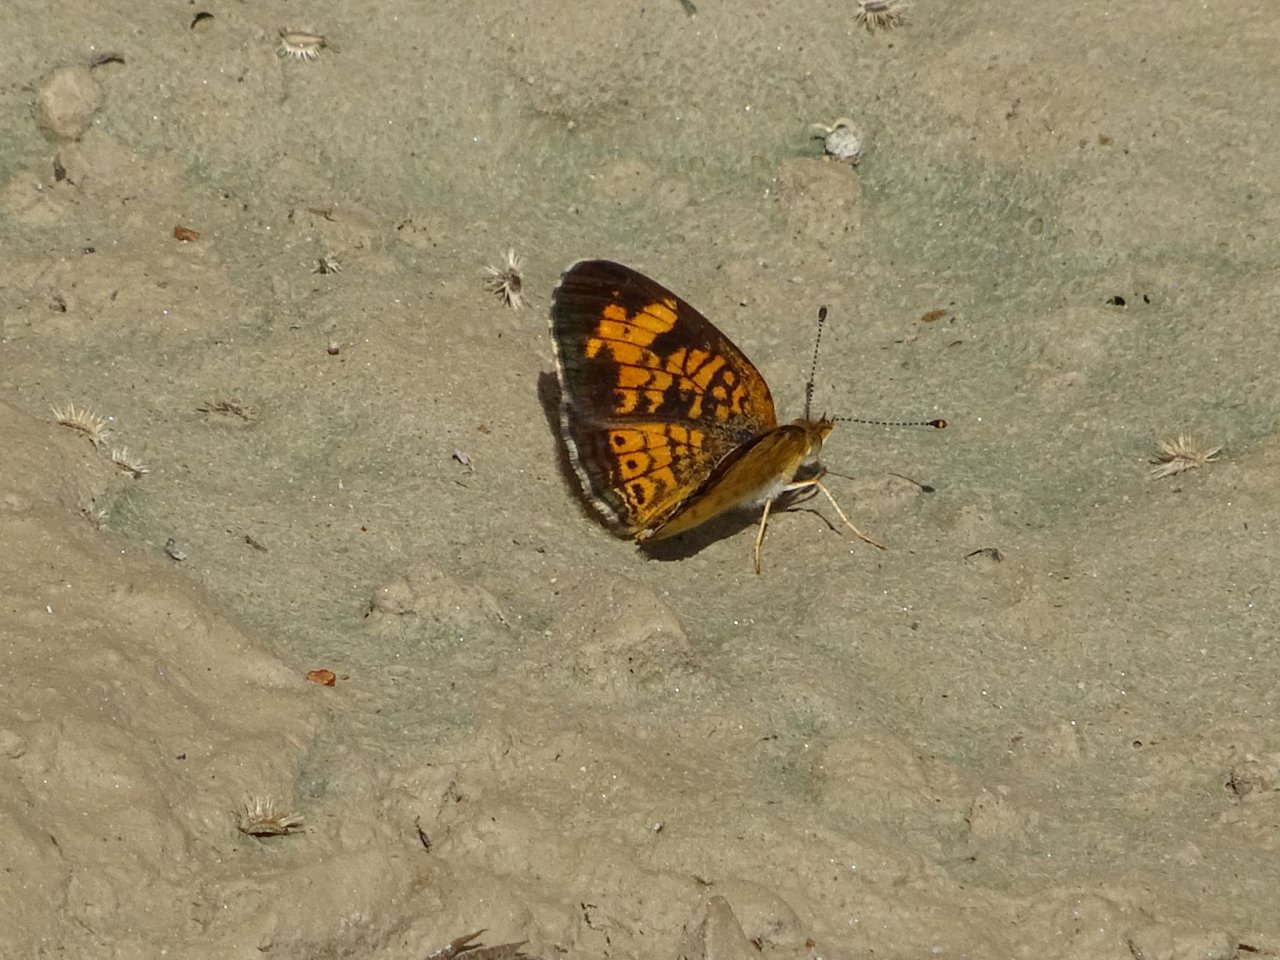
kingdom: Animalia
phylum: Arthropoda
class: Insecta
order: Lepidoptera
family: Nymphalidae
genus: Phyciodes
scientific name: Phyciodes tharos
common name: Pearl Crescent
